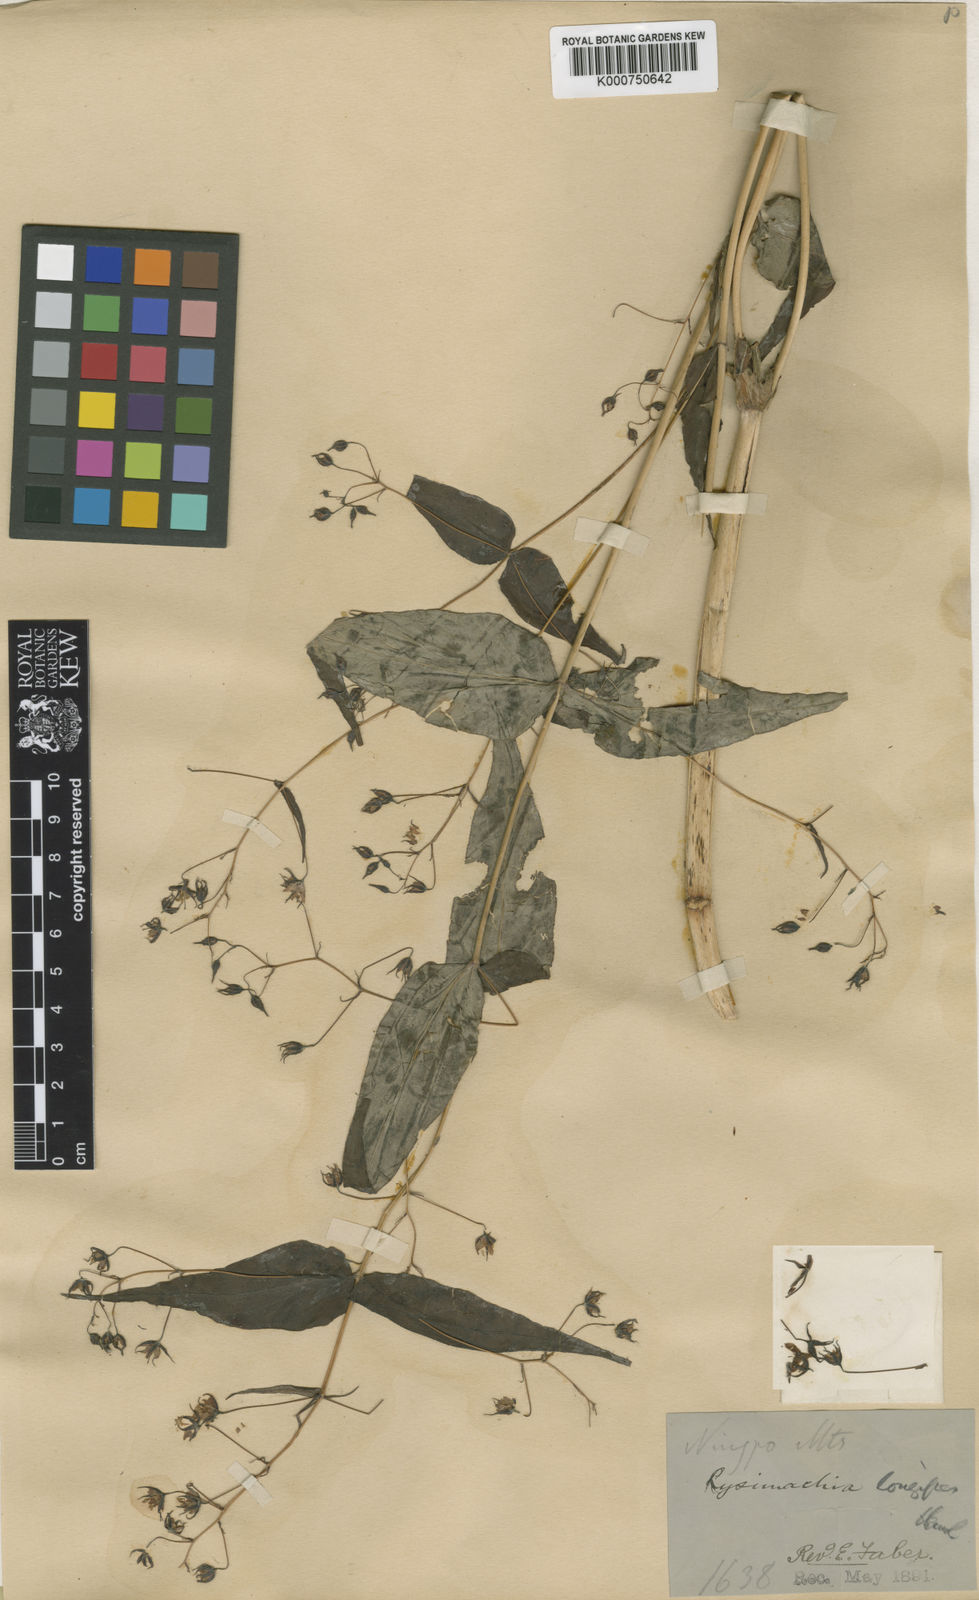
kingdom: Plantae
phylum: Tracheophyta
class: Magnoliopsida
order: Ericales
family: Primulaceae
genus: Lysimachia
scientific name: Lysimachia longipes
